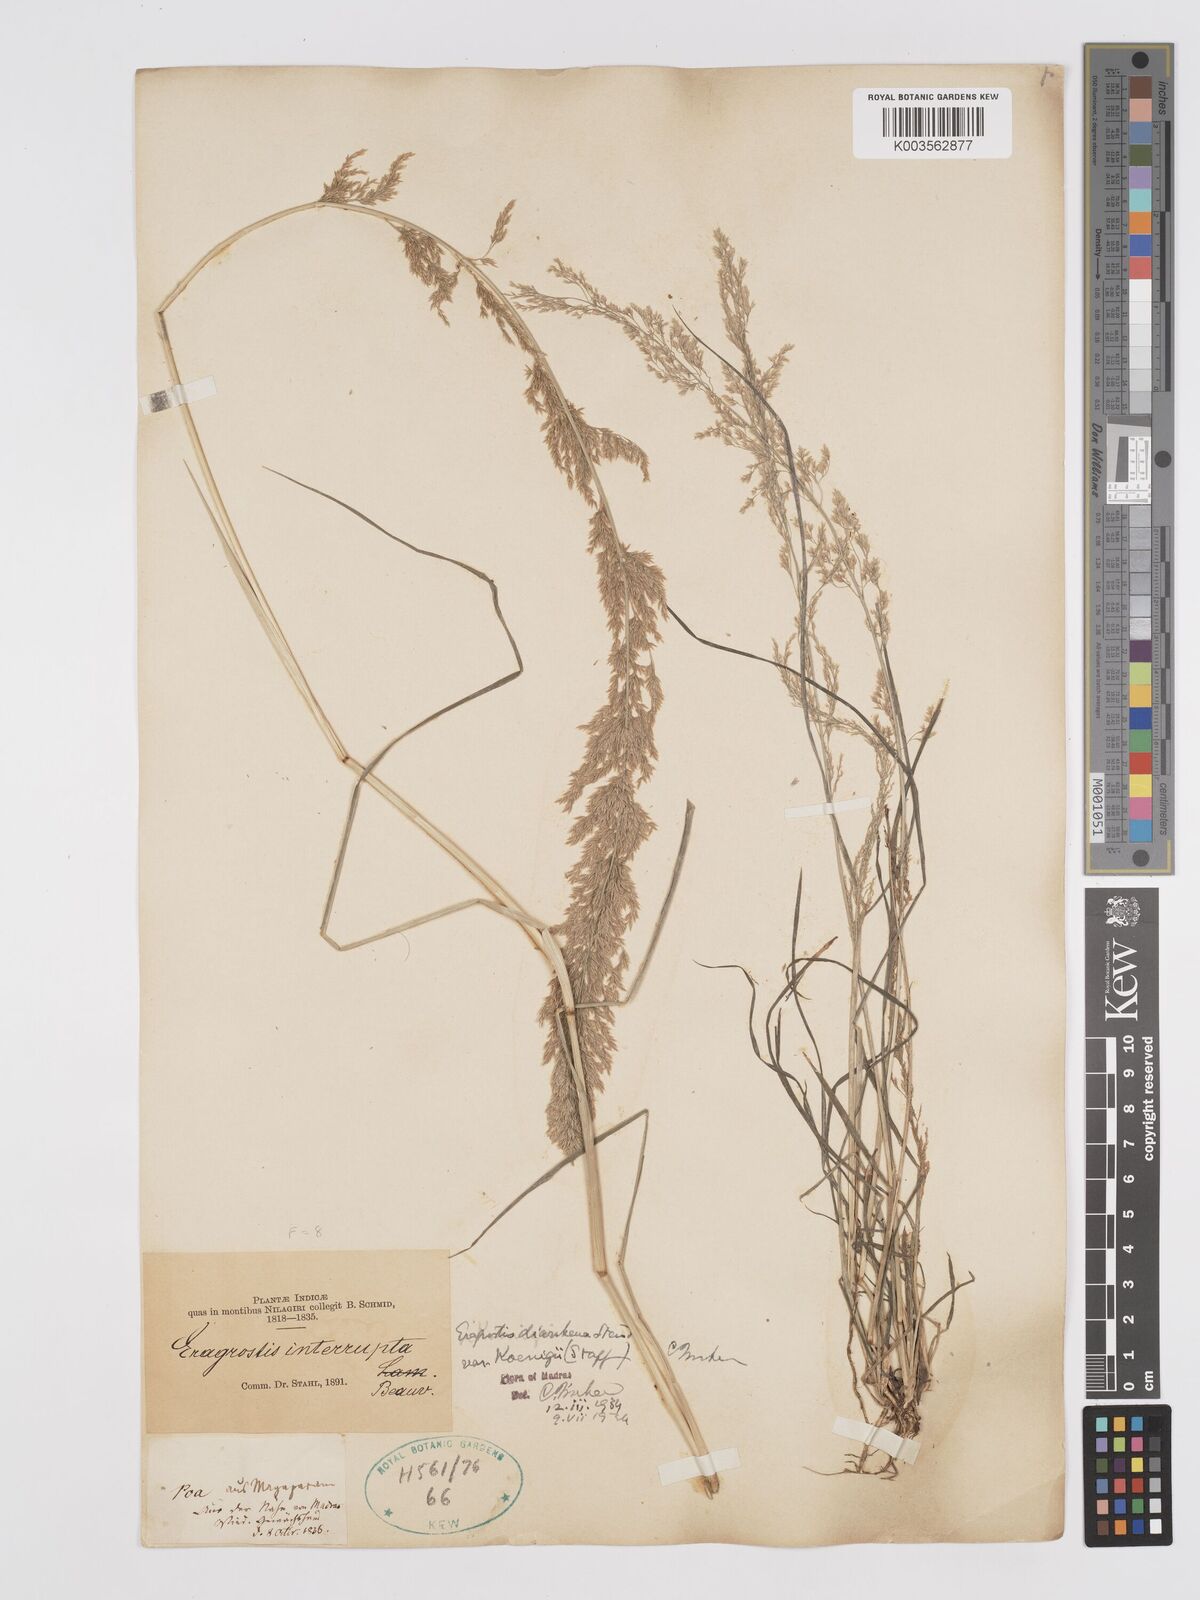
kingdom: Plantae
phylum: Tracheophyta
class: Liliopsida
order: Poales
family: Poaceae
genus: Eragrostis
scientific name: Eragrostis japonica
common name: Pond lovegrass
